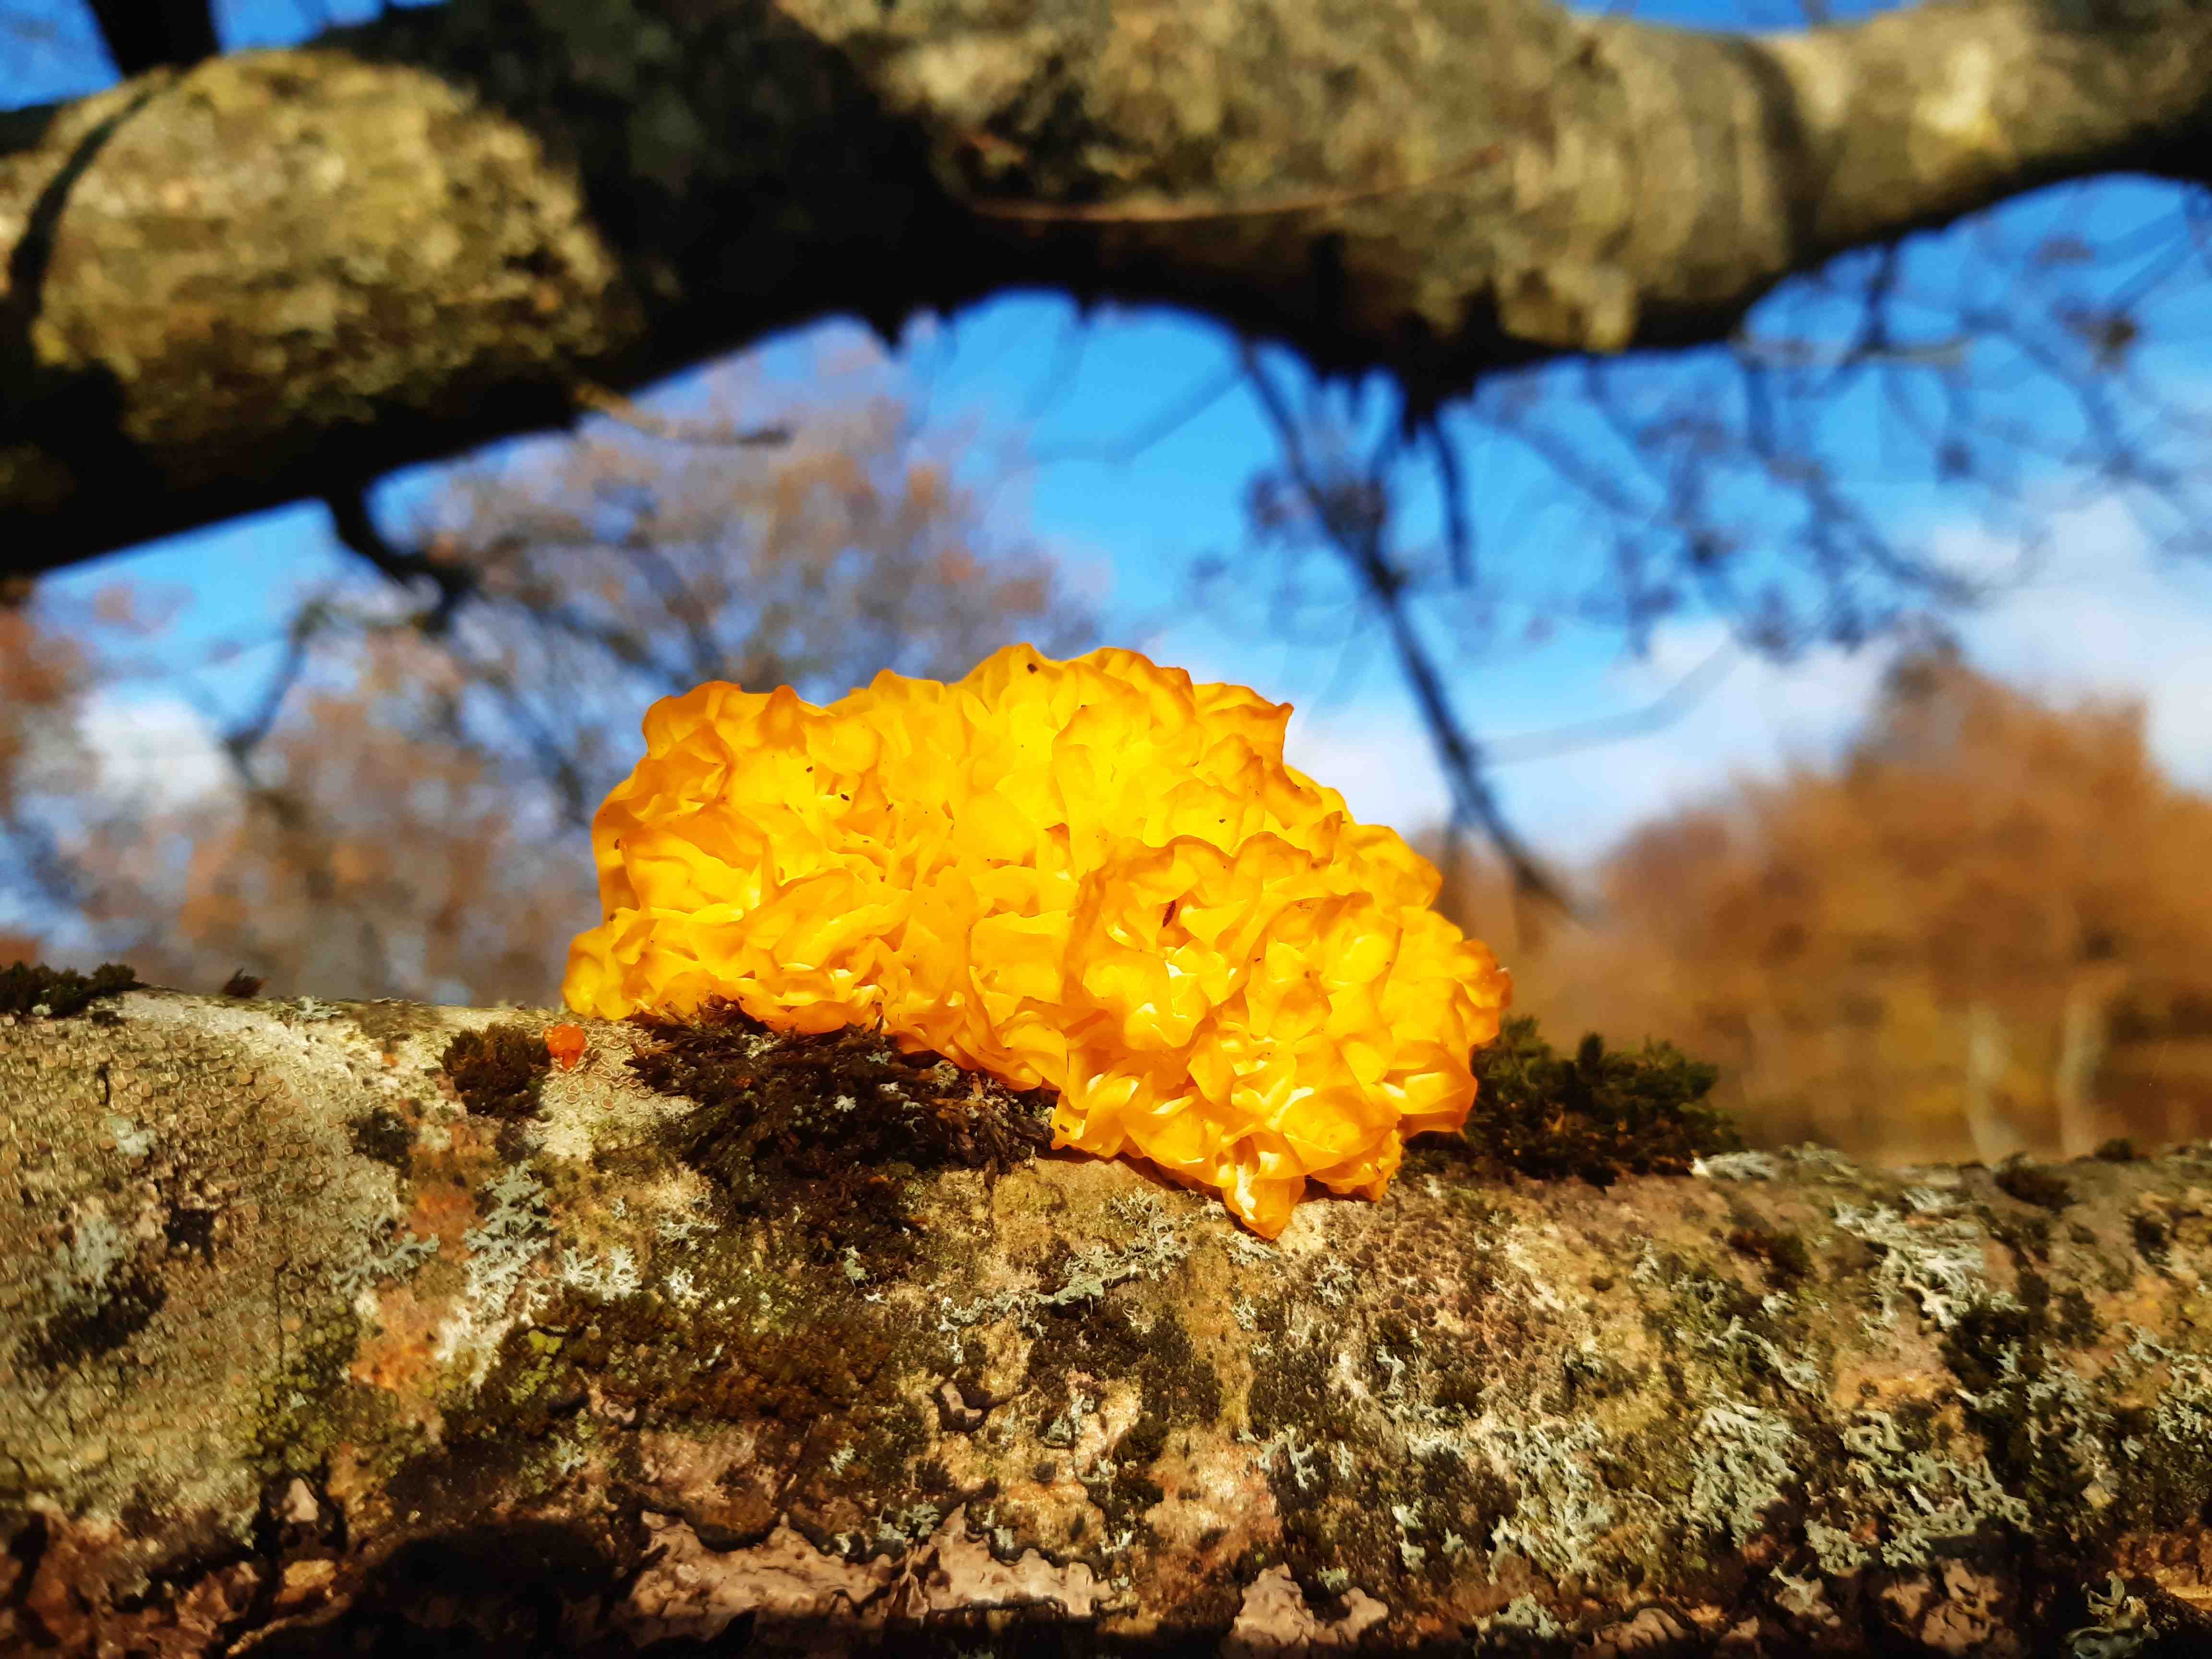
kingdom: Fungi
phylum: Basidiomycota
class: Tremellomycetes
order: Tremellales
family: Tremellaceae
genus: Tremella
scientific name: Tremella mesenterica
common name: gul bævresvamp
